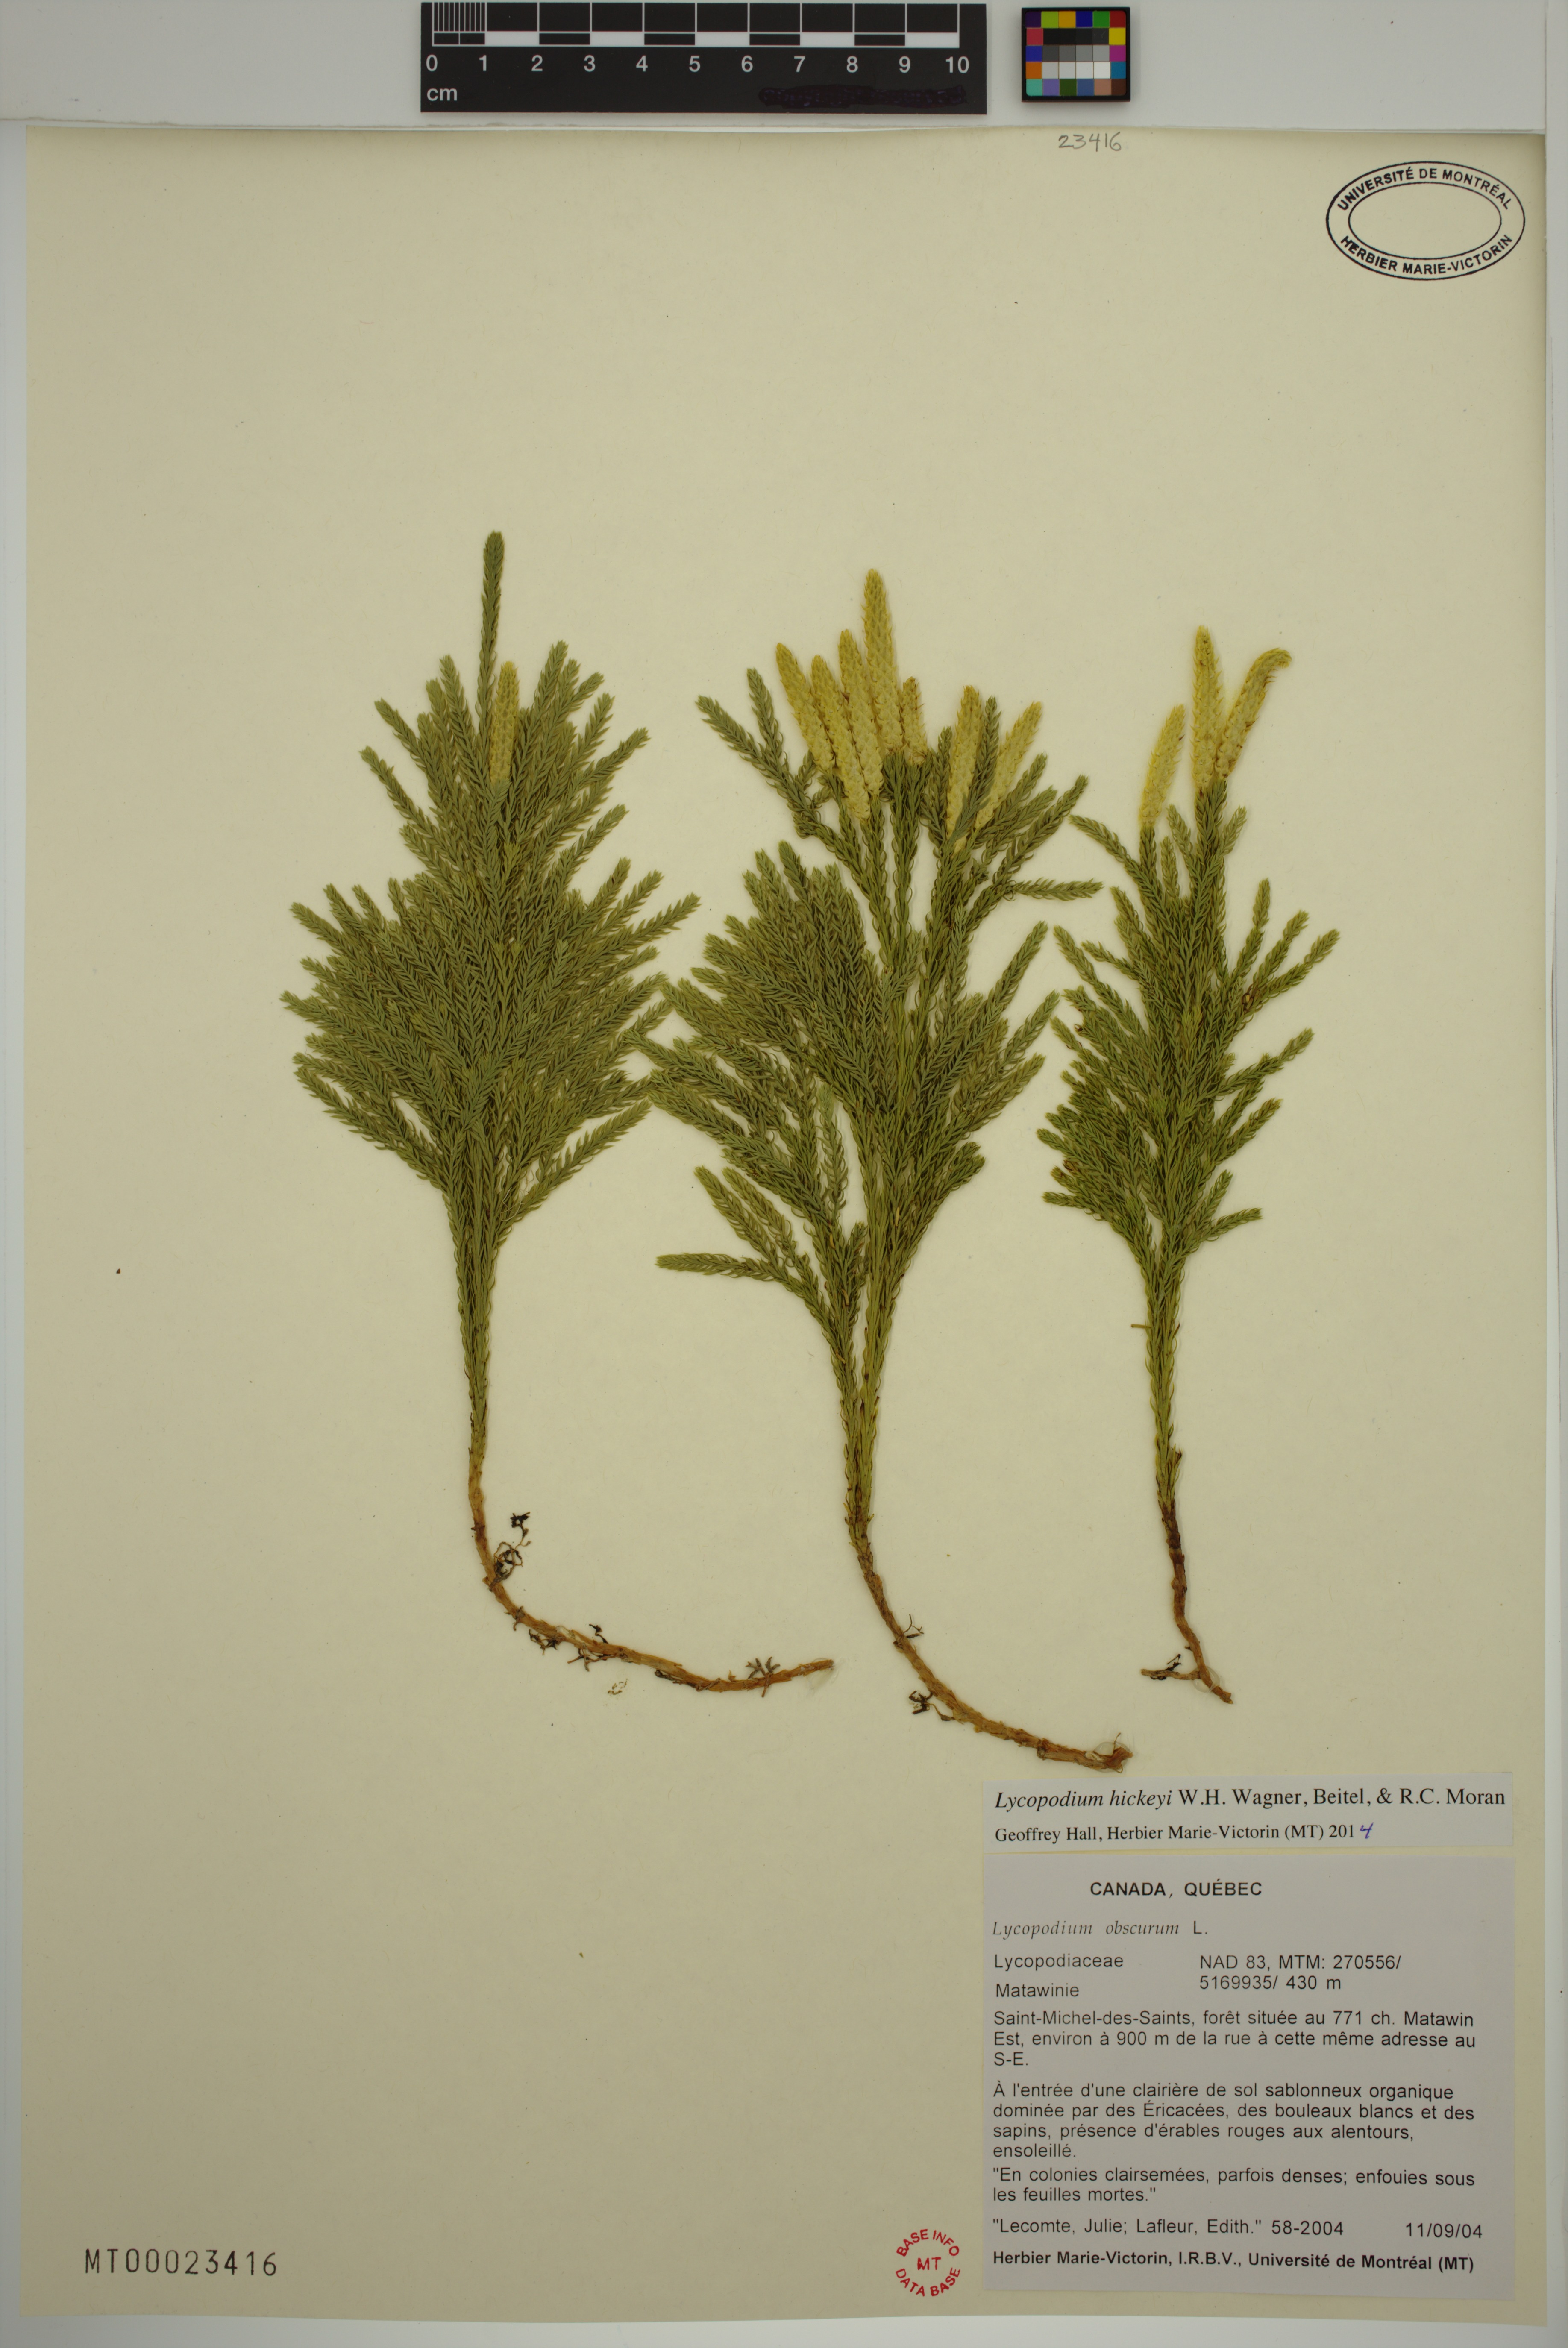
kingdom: Plantae
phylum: Tracheophyta
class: Lycopodiopsida
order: Lycopodiales
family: Lycopodiaceae
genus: Dendrolycopodium
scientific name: Dendrolycopodium hickeyi
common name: Hickey's clubmoss
